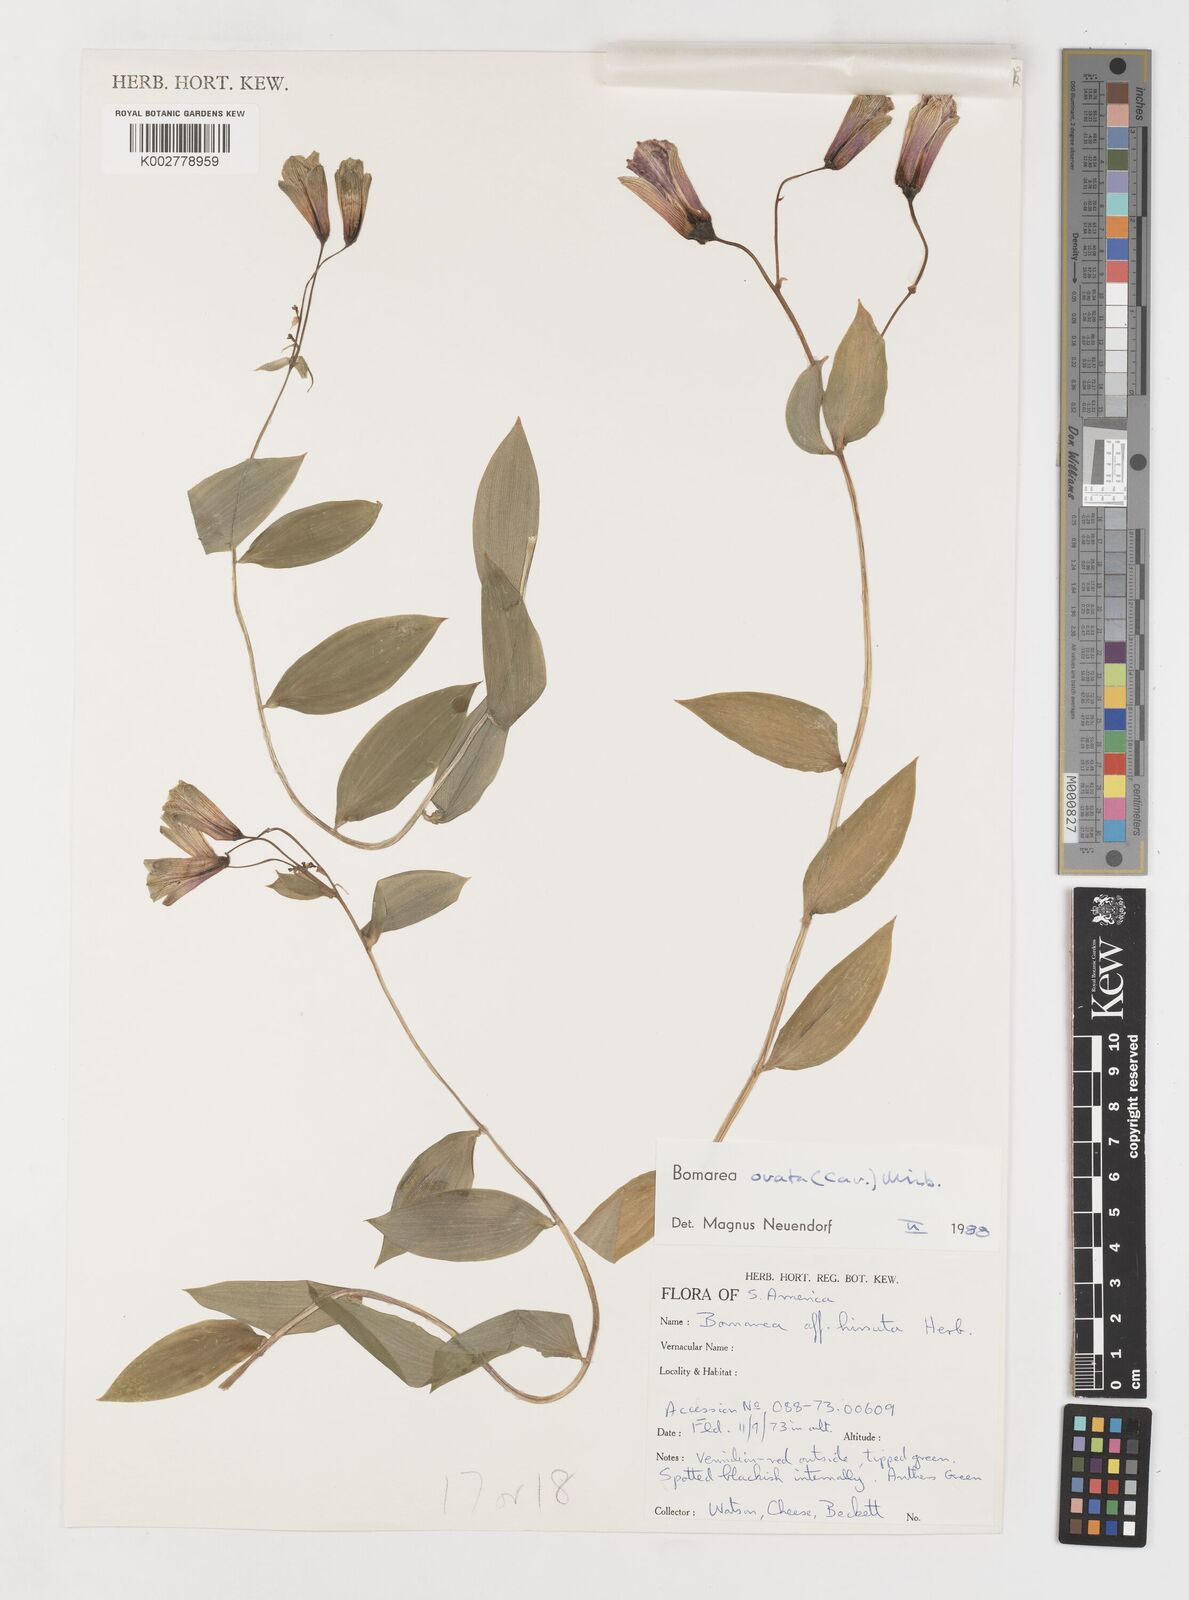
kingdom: Plantae
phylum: Tracheophyta
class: Liliopsida
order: Liliales
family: Alstroemeriaceae
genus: Bomarea
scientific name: Bomarea ovata
